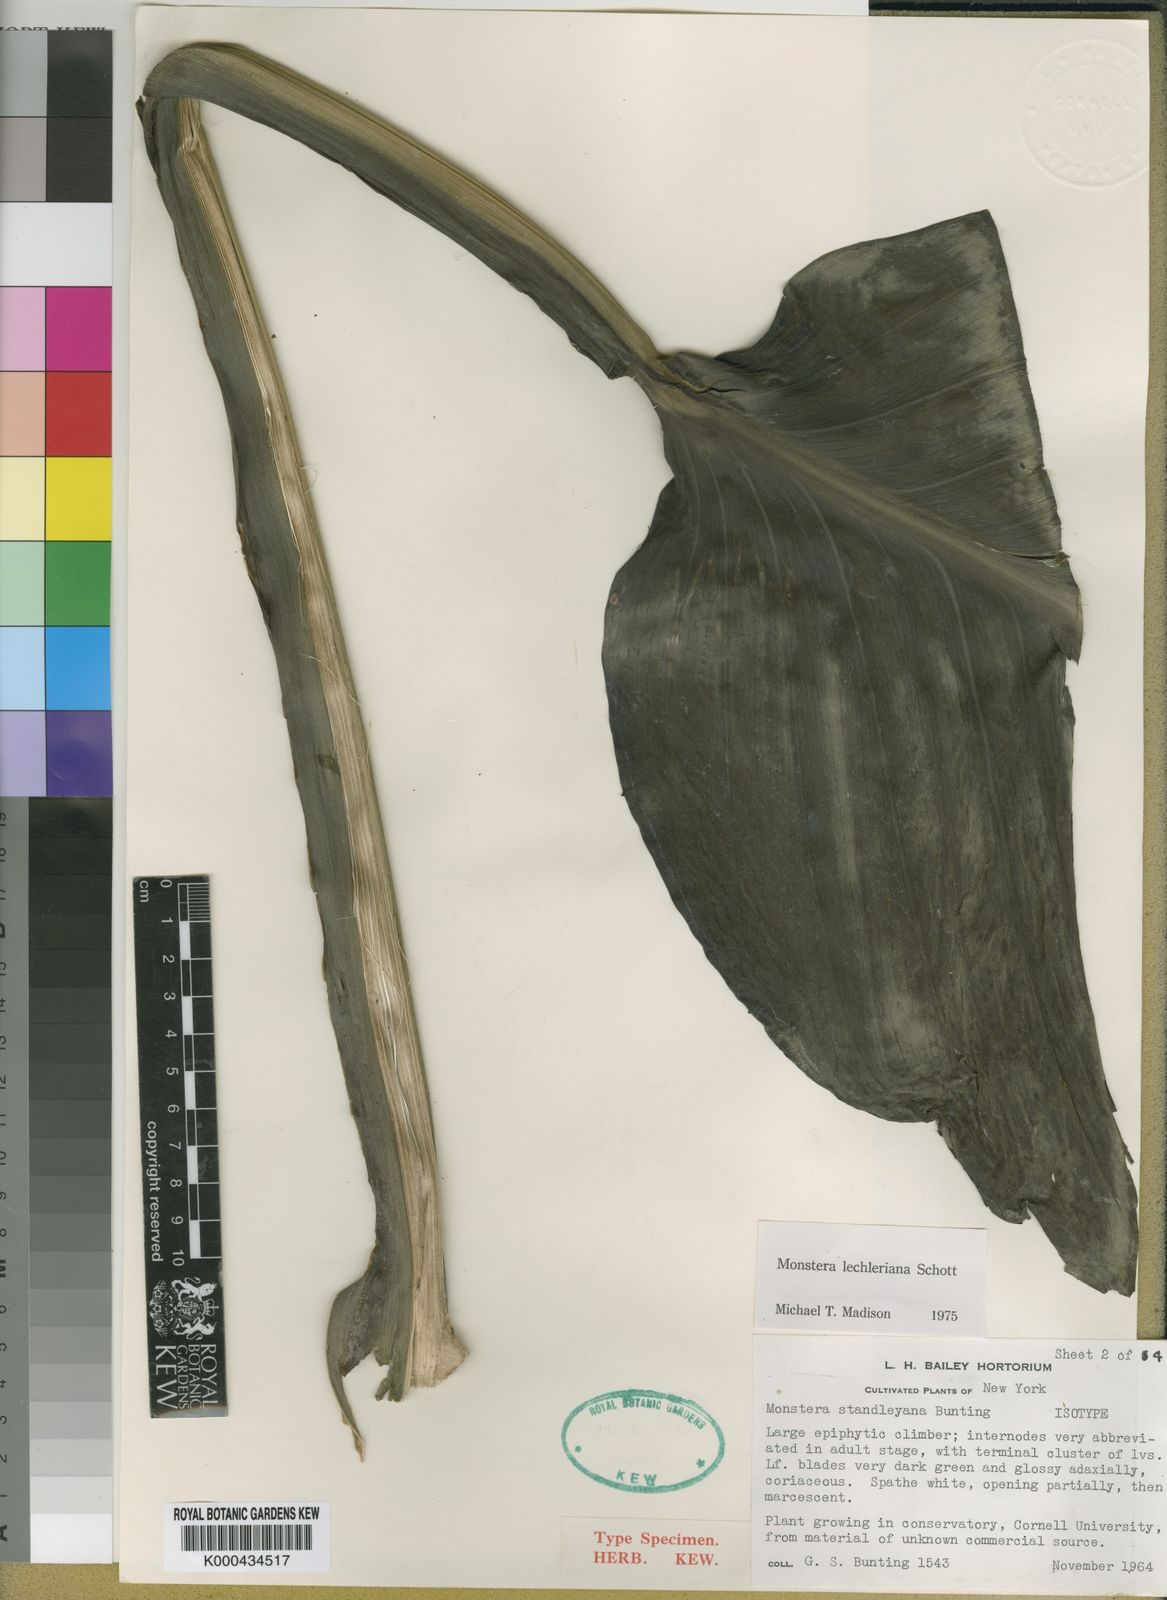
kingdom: Plantae
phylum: Tracheophyta
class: Liliopsida
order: Alismatales
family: Araceae
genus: Monstera
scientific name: Monstera lechleriana
